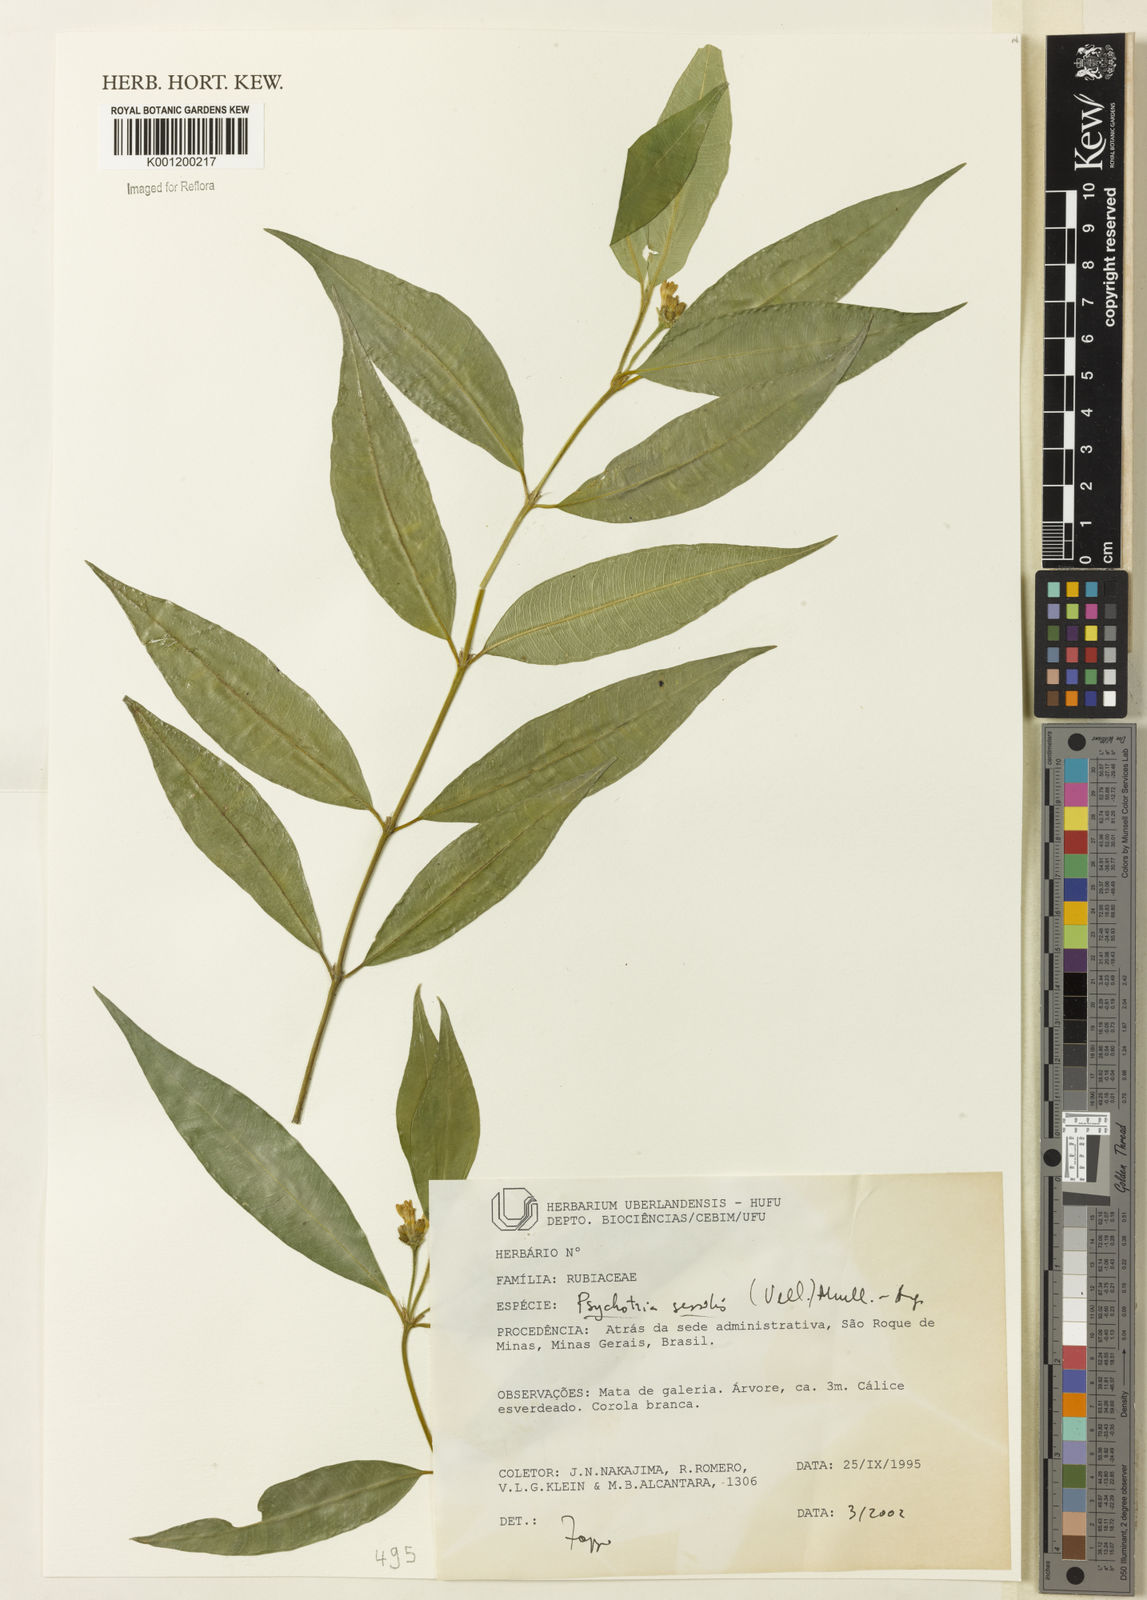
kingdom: Plantae
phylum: Tracheophyta
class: Magnoliopsida
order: Gentianales
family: Rubiaceae
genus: Rudgea
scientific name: Rudgea sessilis
